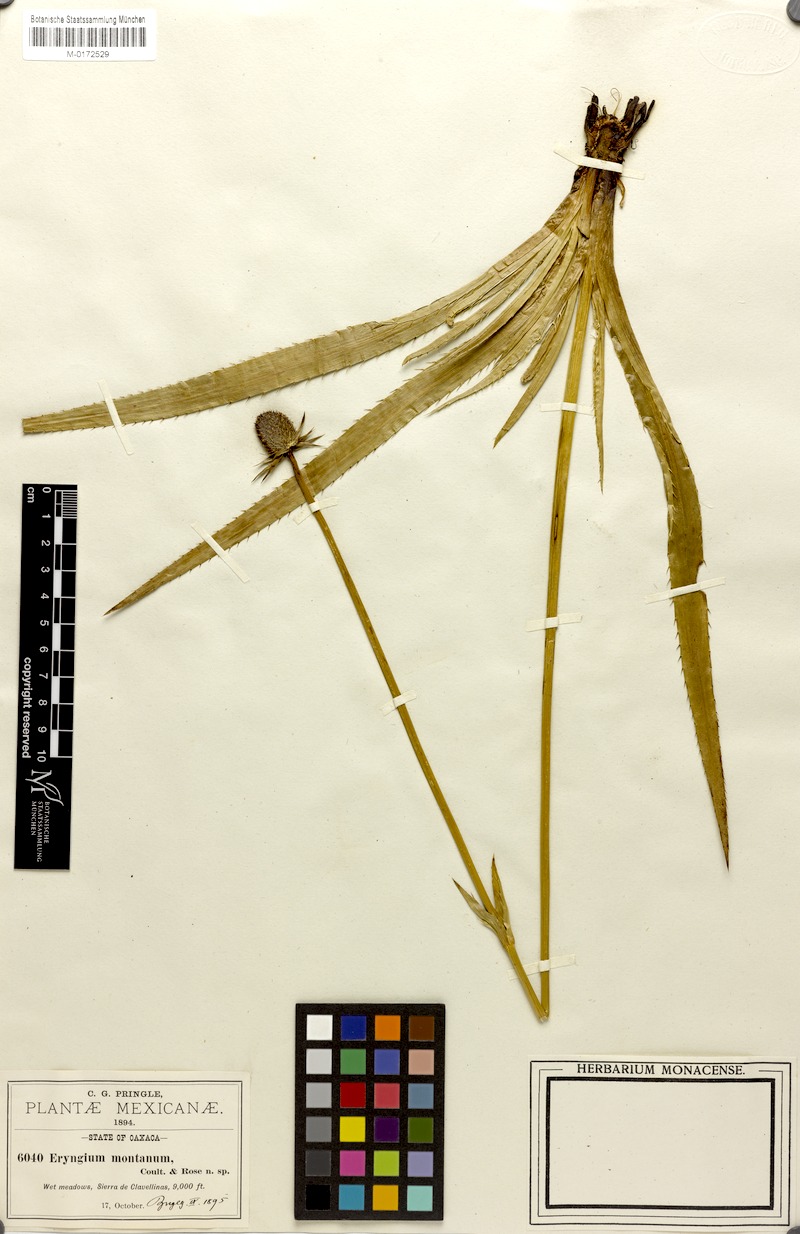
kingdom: Plantae
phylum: Tracheophyta
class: Magnoliopsida
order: Apiales
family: Apiaceae
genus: Eryngium
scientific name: Eryngium montanum
